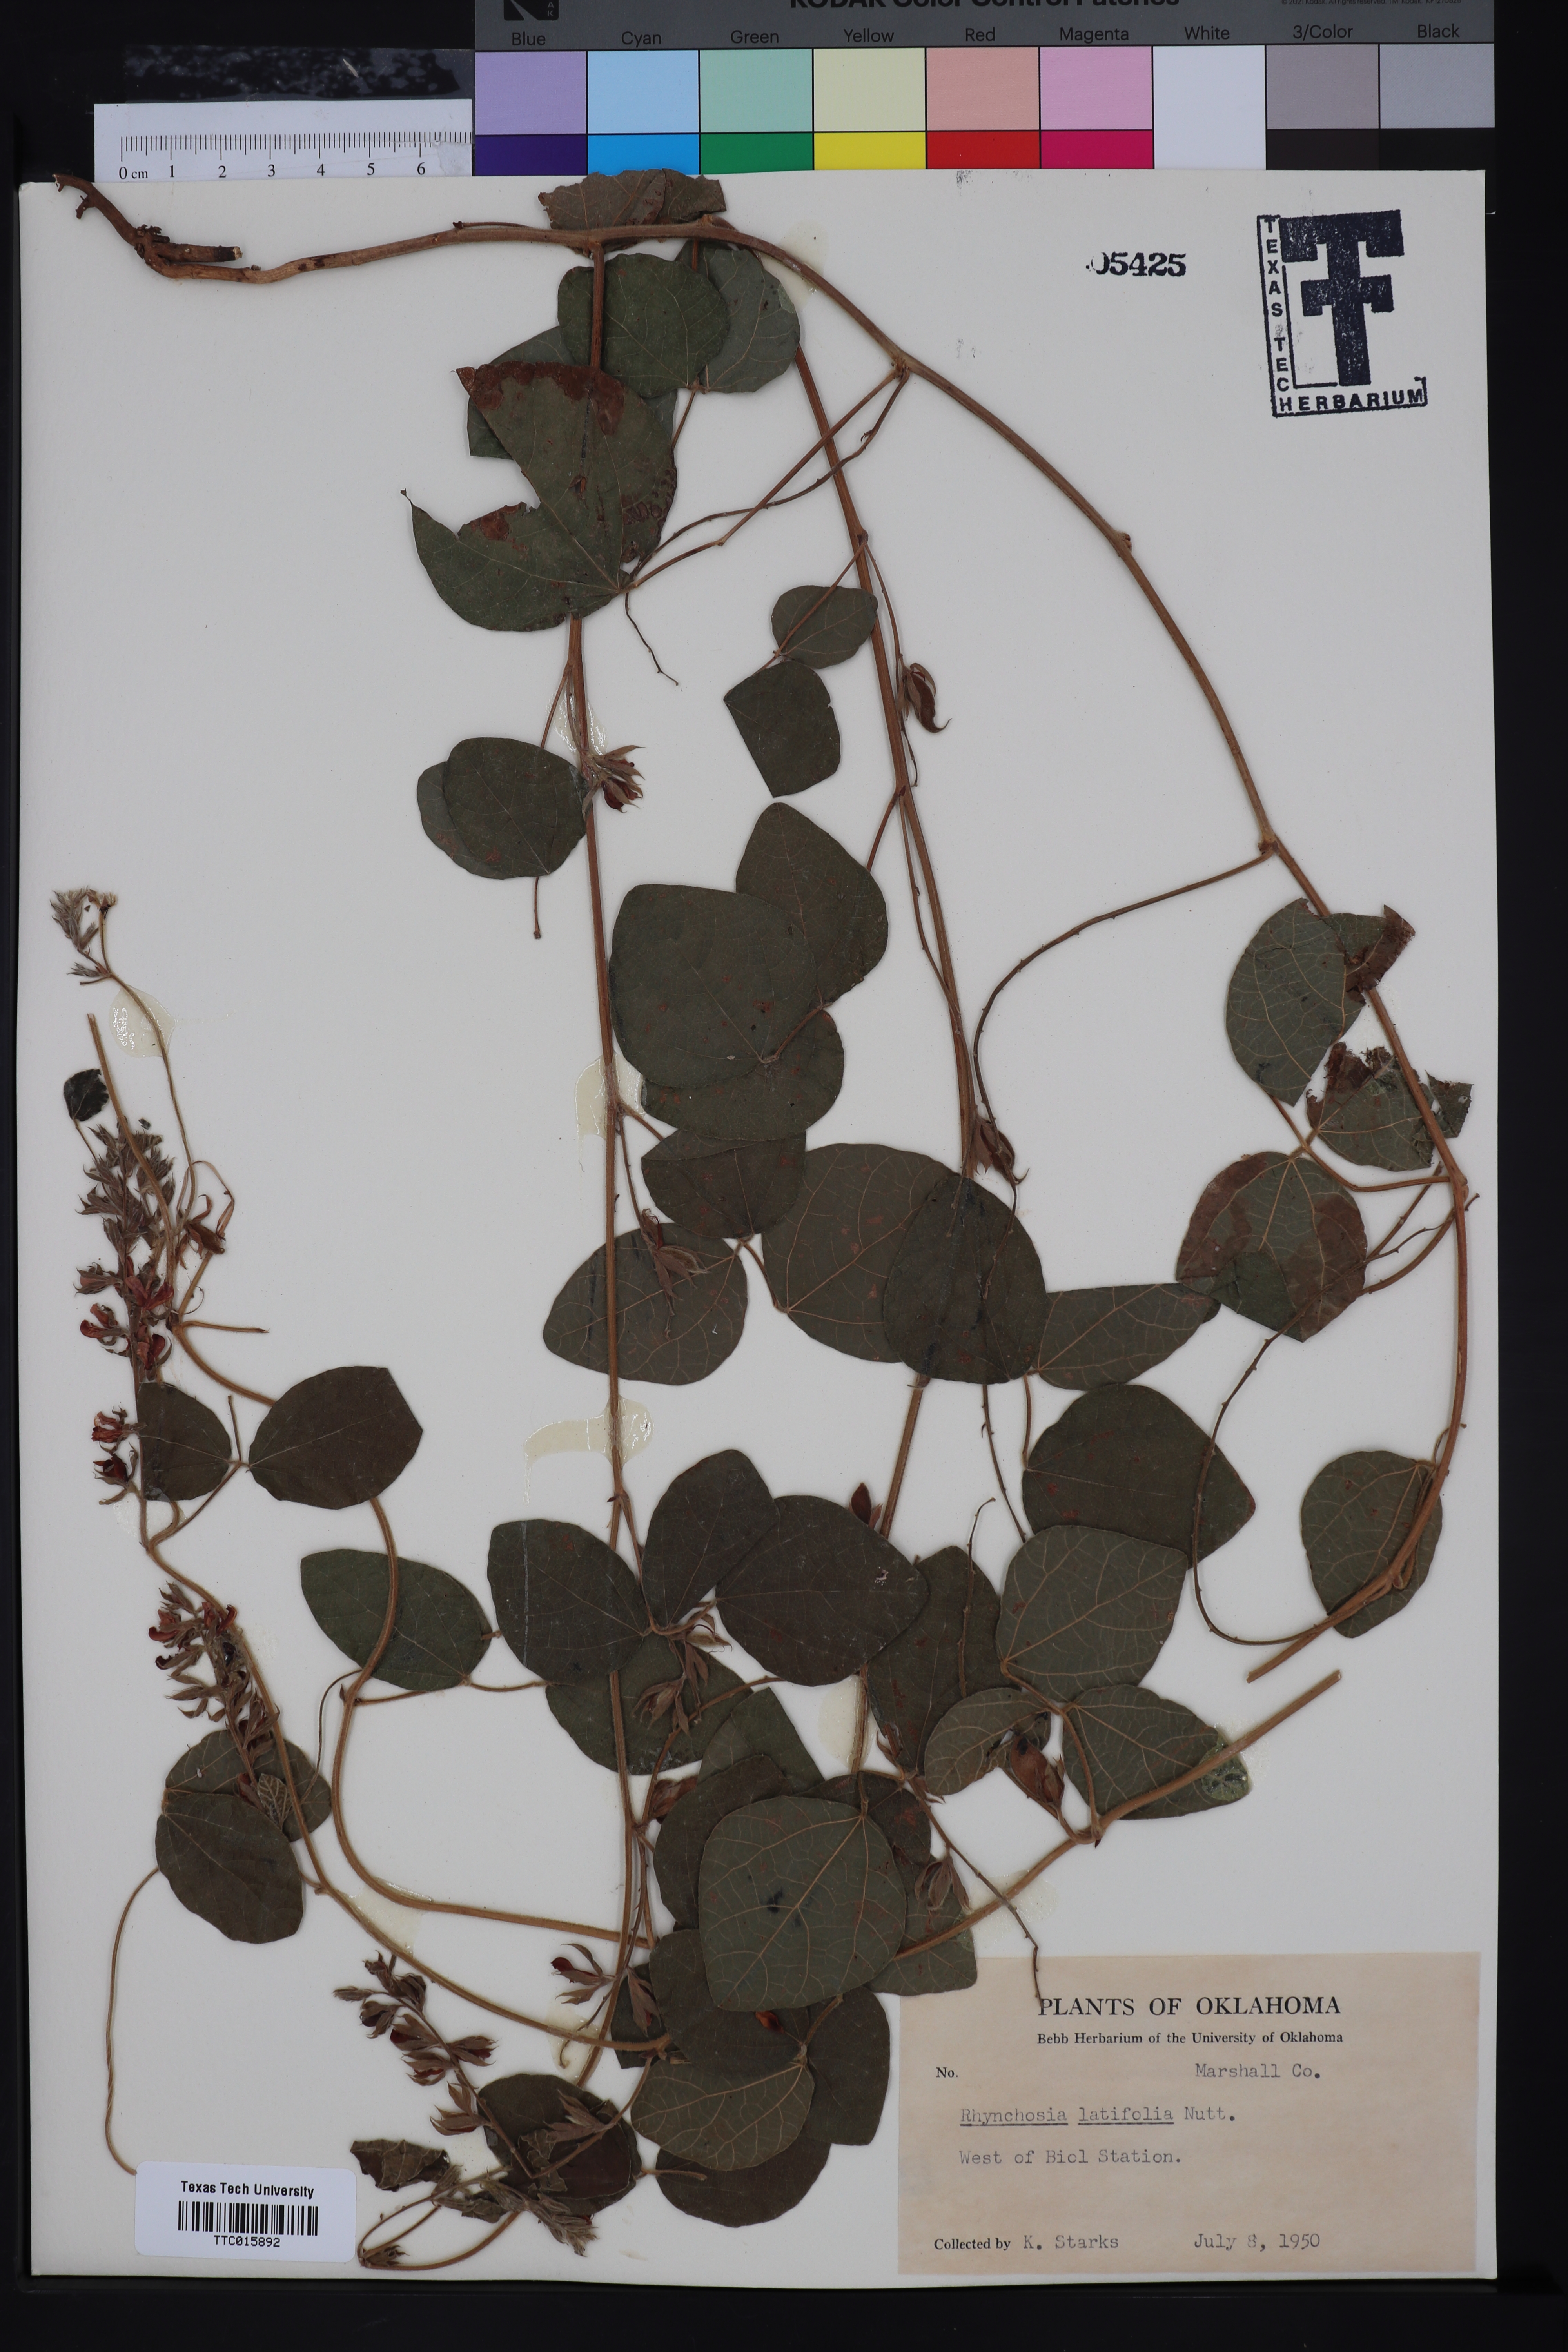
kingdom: Plantae
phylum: Tracheophyta
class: Magnoliopsida
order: Fabales
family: Fabaceae
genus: Rhynchosia
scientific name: Rhynchosia latifolia
